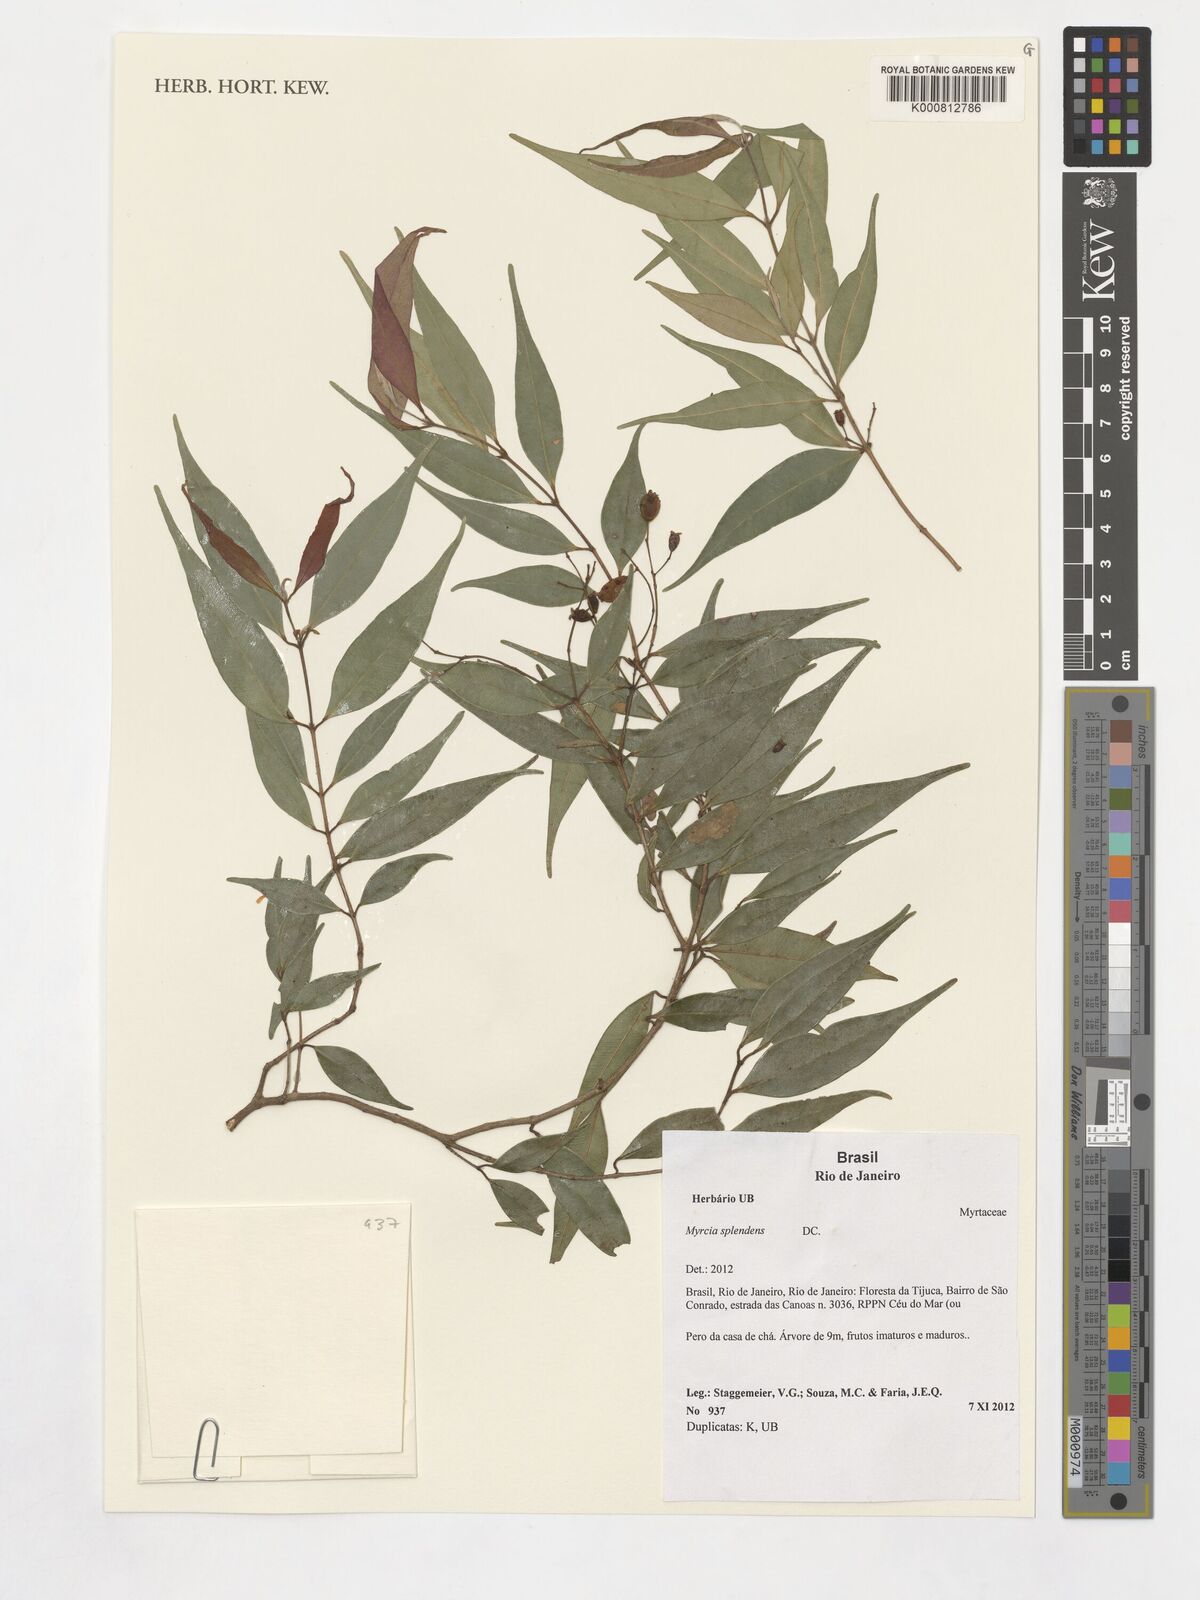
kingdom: Plantae
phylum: Tracheophyta
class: Magnoliopsida
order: Myrtales
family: Myrtaceae
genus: Myrcia
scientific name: Myrcia splendens
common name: Surinam cherry
